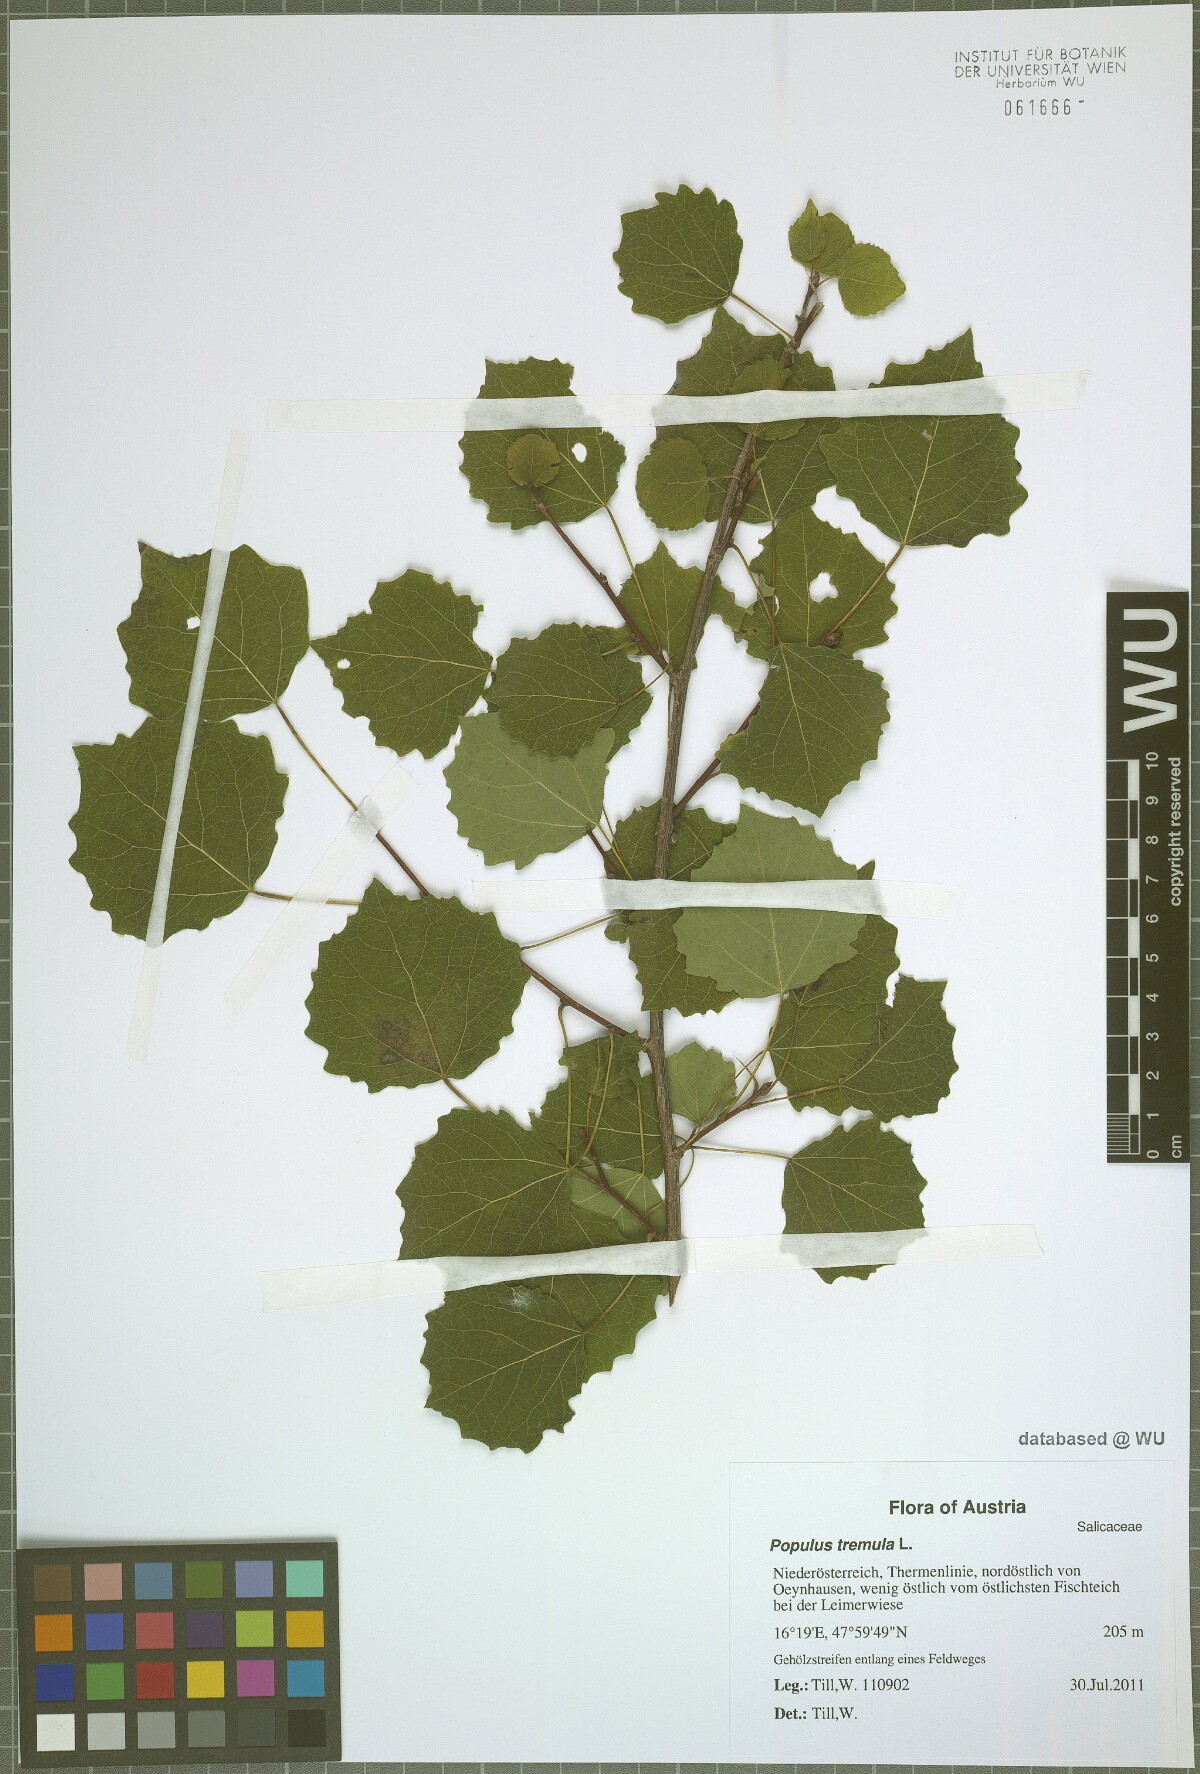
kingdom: Plantae
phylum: Tracheophyta
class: Magnoliopsida
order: Malpighiales
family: Salicaceae
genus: Populus
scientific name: Populus tremula
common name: European aspen
